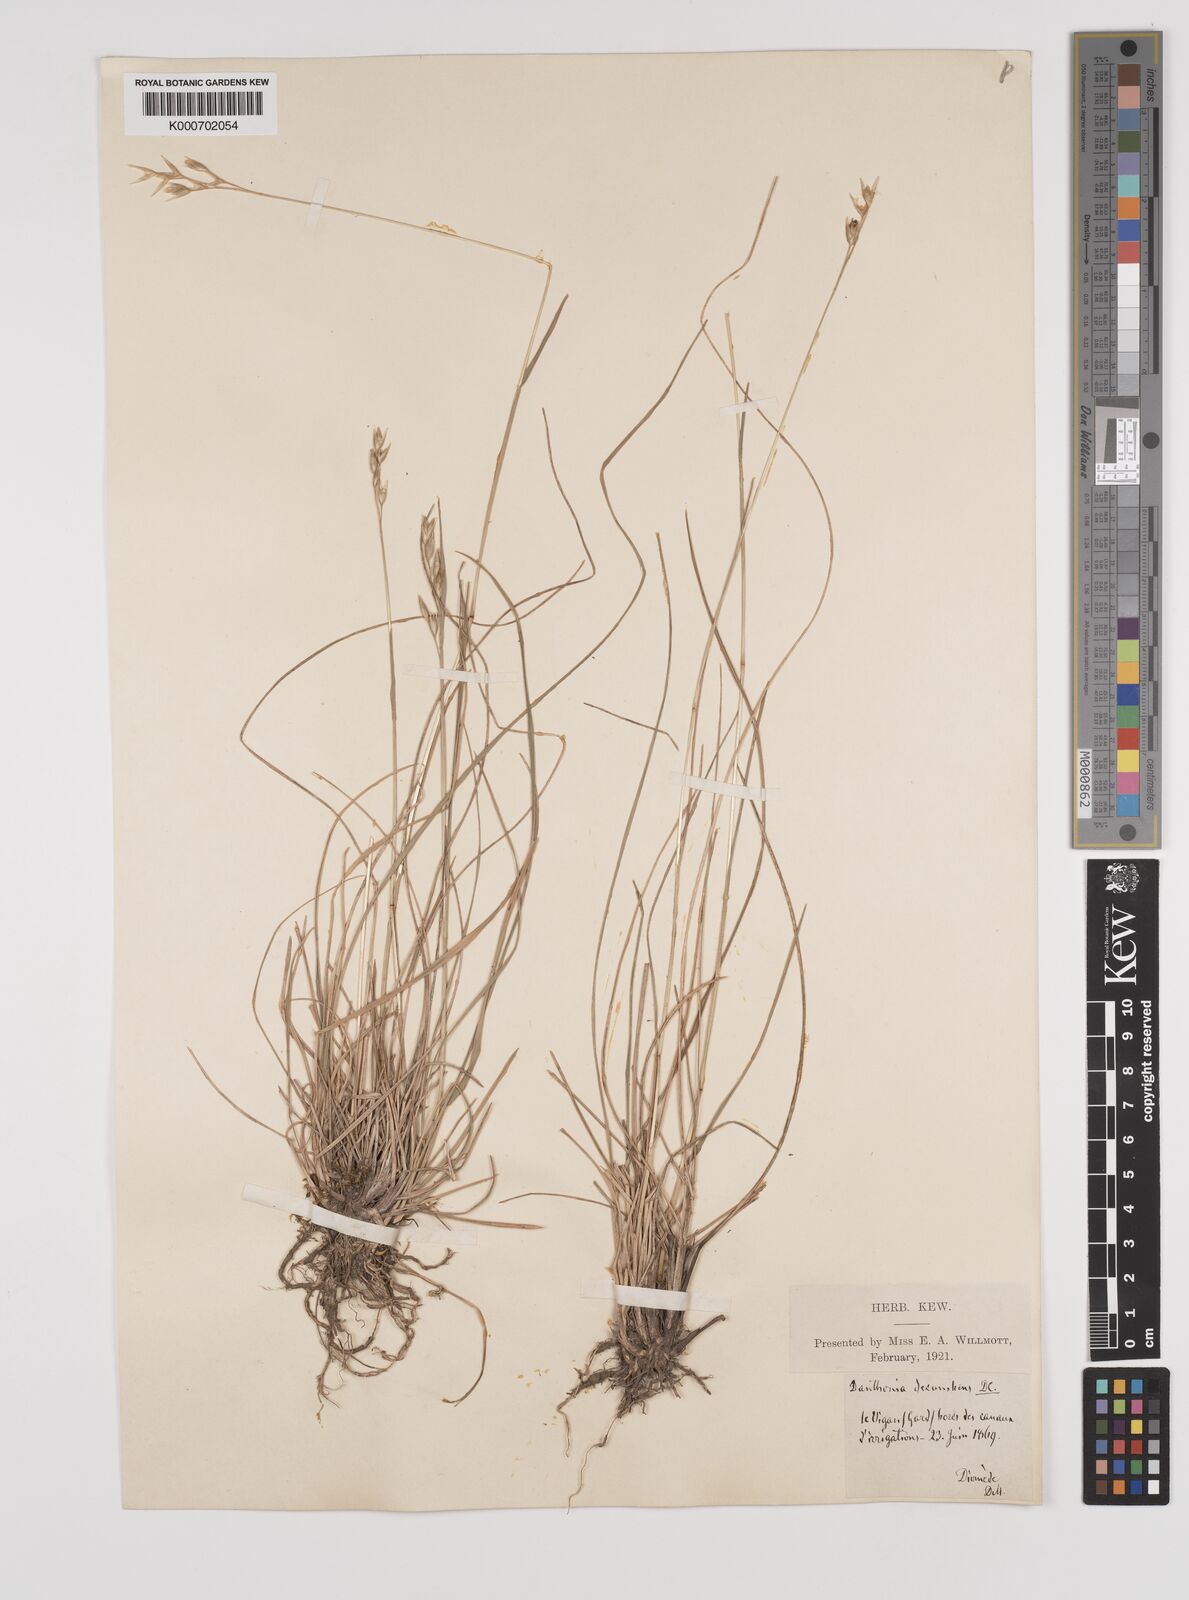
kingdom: Plantae
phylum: Tracheophyta
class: Liliopsida
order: Poales
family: Poaceae
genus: Danthonia
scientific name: Danthonia decumbens
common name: Common heathgrass
